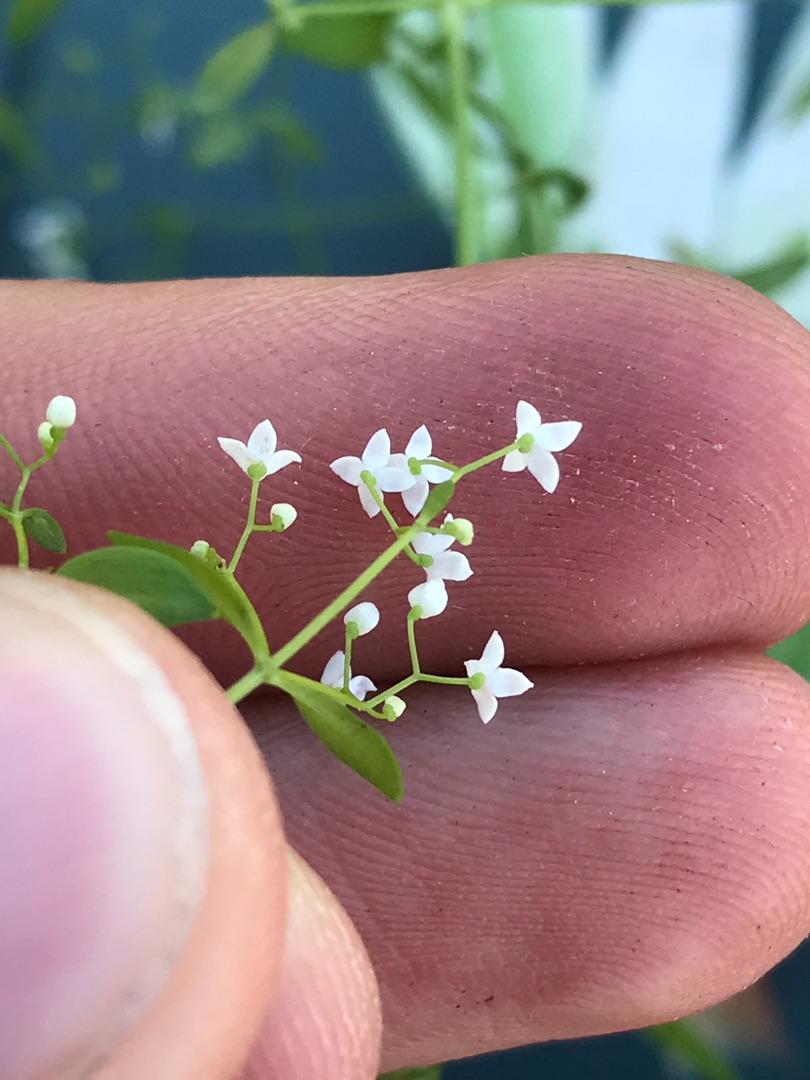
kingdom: Plantae
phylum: Tracheophyta
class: Magnoliopsida
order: Gentianales
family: Rubiaceae
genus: Galium
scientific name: Galium palustre
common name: Kær-snerre
